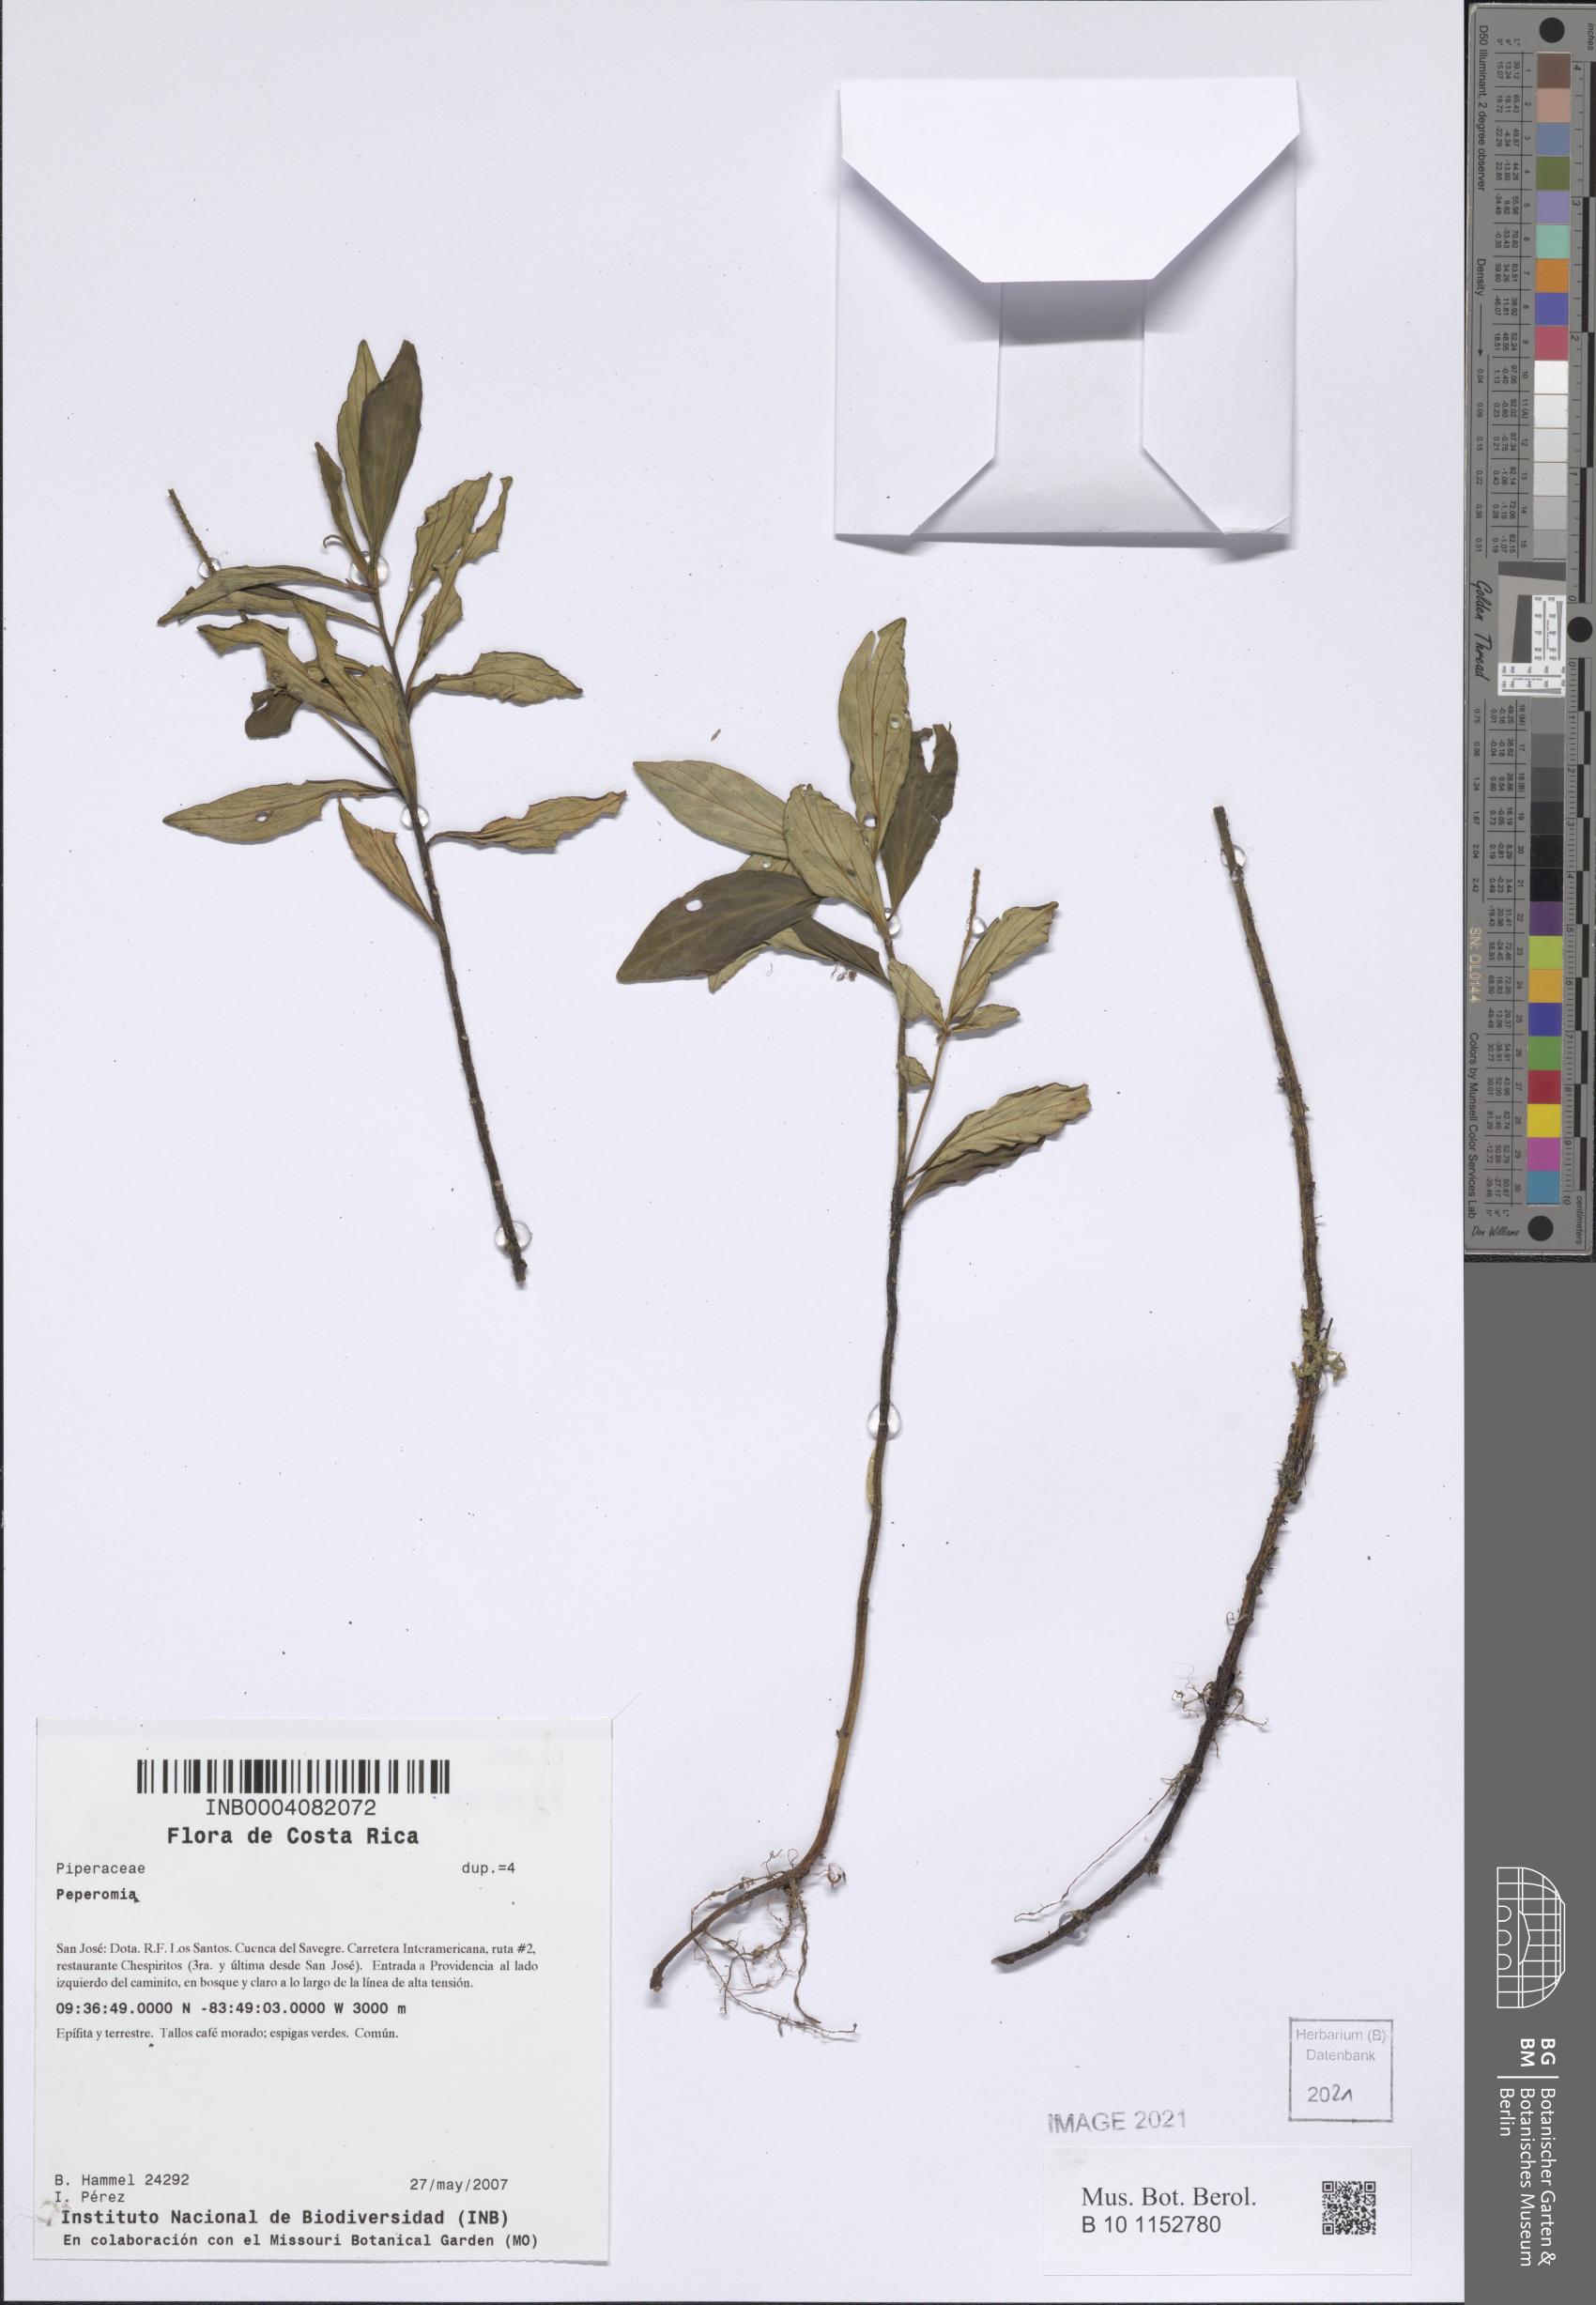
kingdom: Plantae
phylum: Tracheophyta
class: Magnoliopsida
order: Piperales
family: Piperaceae
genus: Peperomia
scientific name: Peperomia
